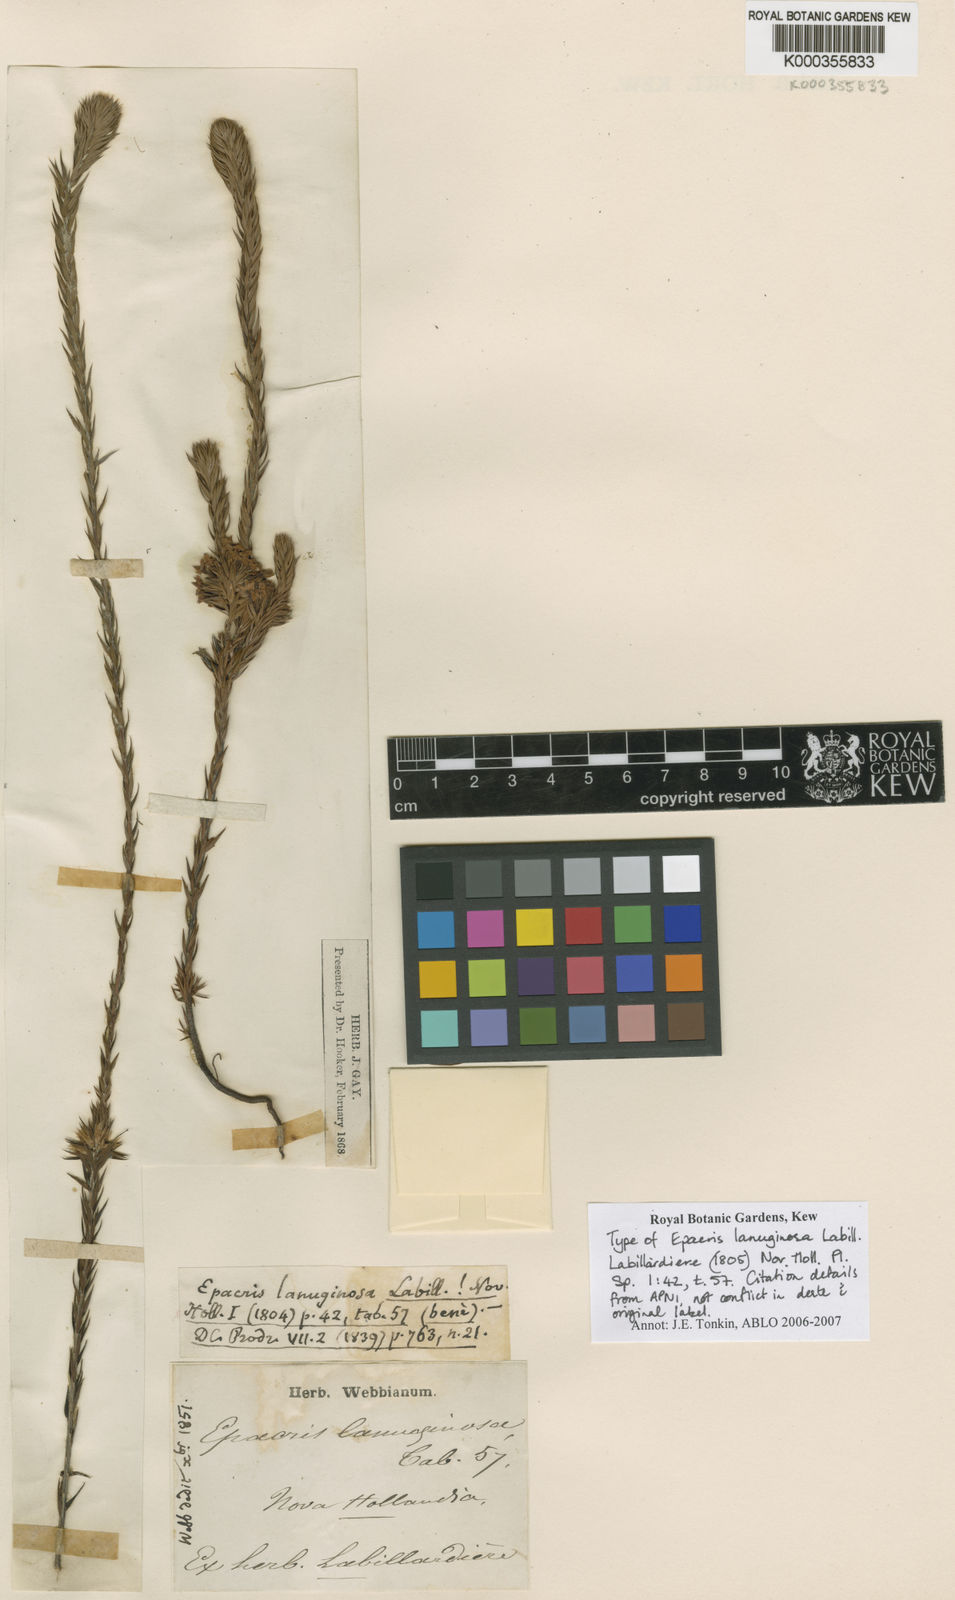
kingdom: Plantae
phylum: Tracheophyta
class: Magnoliopsida
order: Ericales
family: Ericaceae
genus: Epacris
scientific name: Epacris lanuginosa
